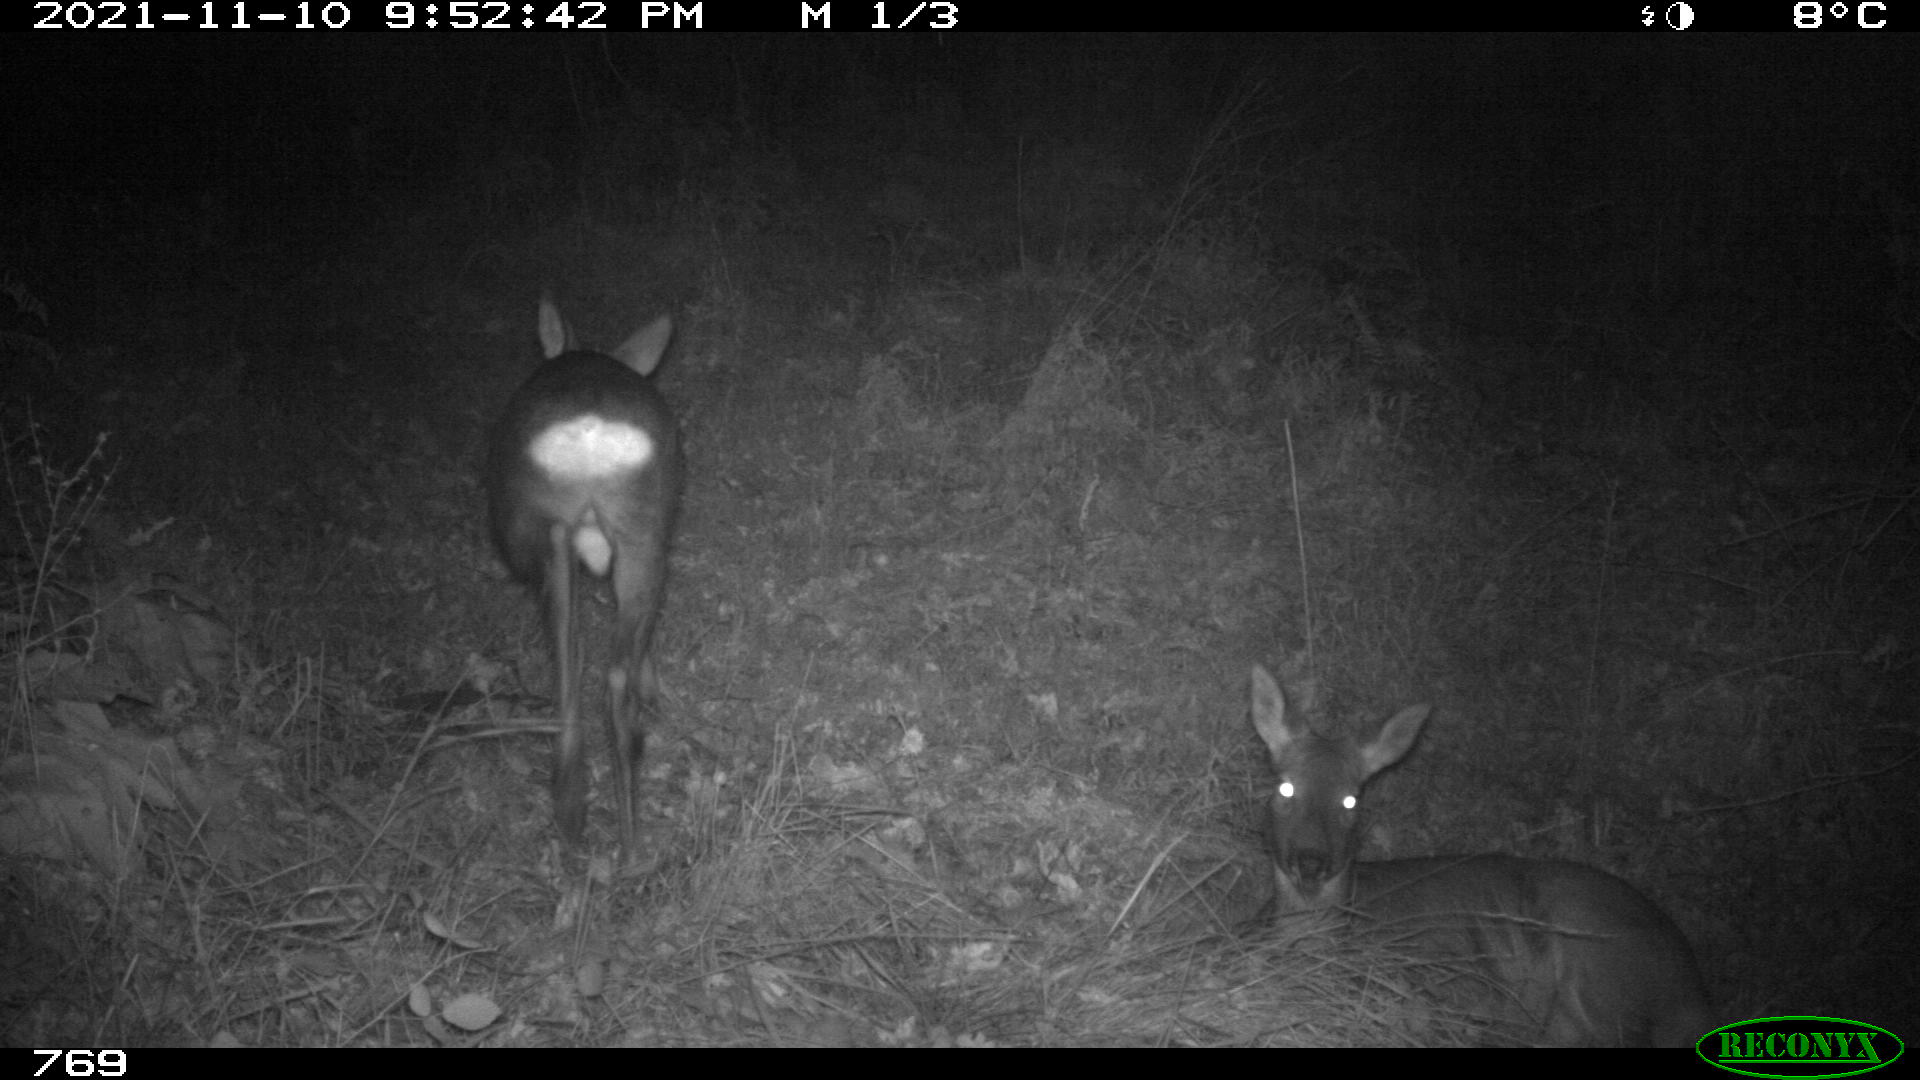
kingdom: Animalia
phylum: Chordata
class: Mammalia
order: Artiodactyla
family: Cervidae
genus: Capreolus
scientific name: Capreolus capreolus
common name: Western roe deer
